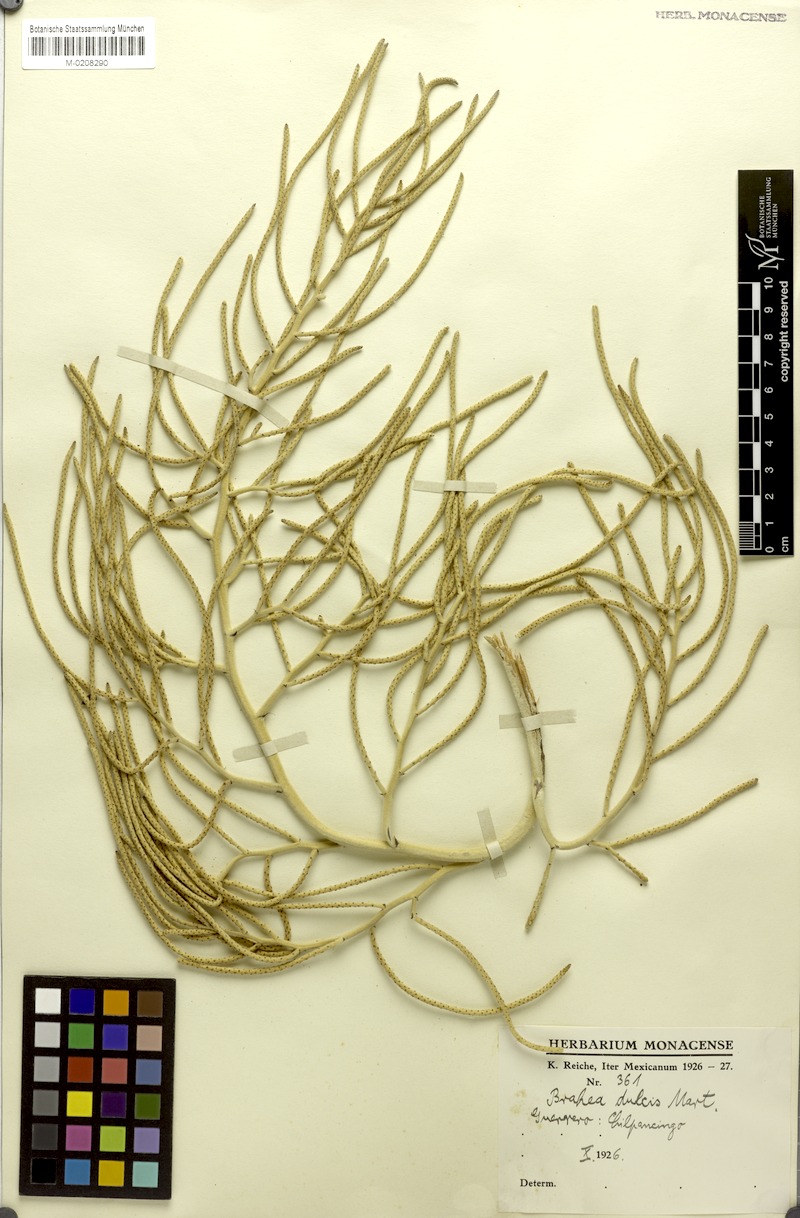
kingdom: Plantae
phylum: Tracheophyta
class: Liliopsida
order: Arecales
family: Arecaceae
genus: Brahea
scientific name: Brahea dulcis
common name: Apak palm
